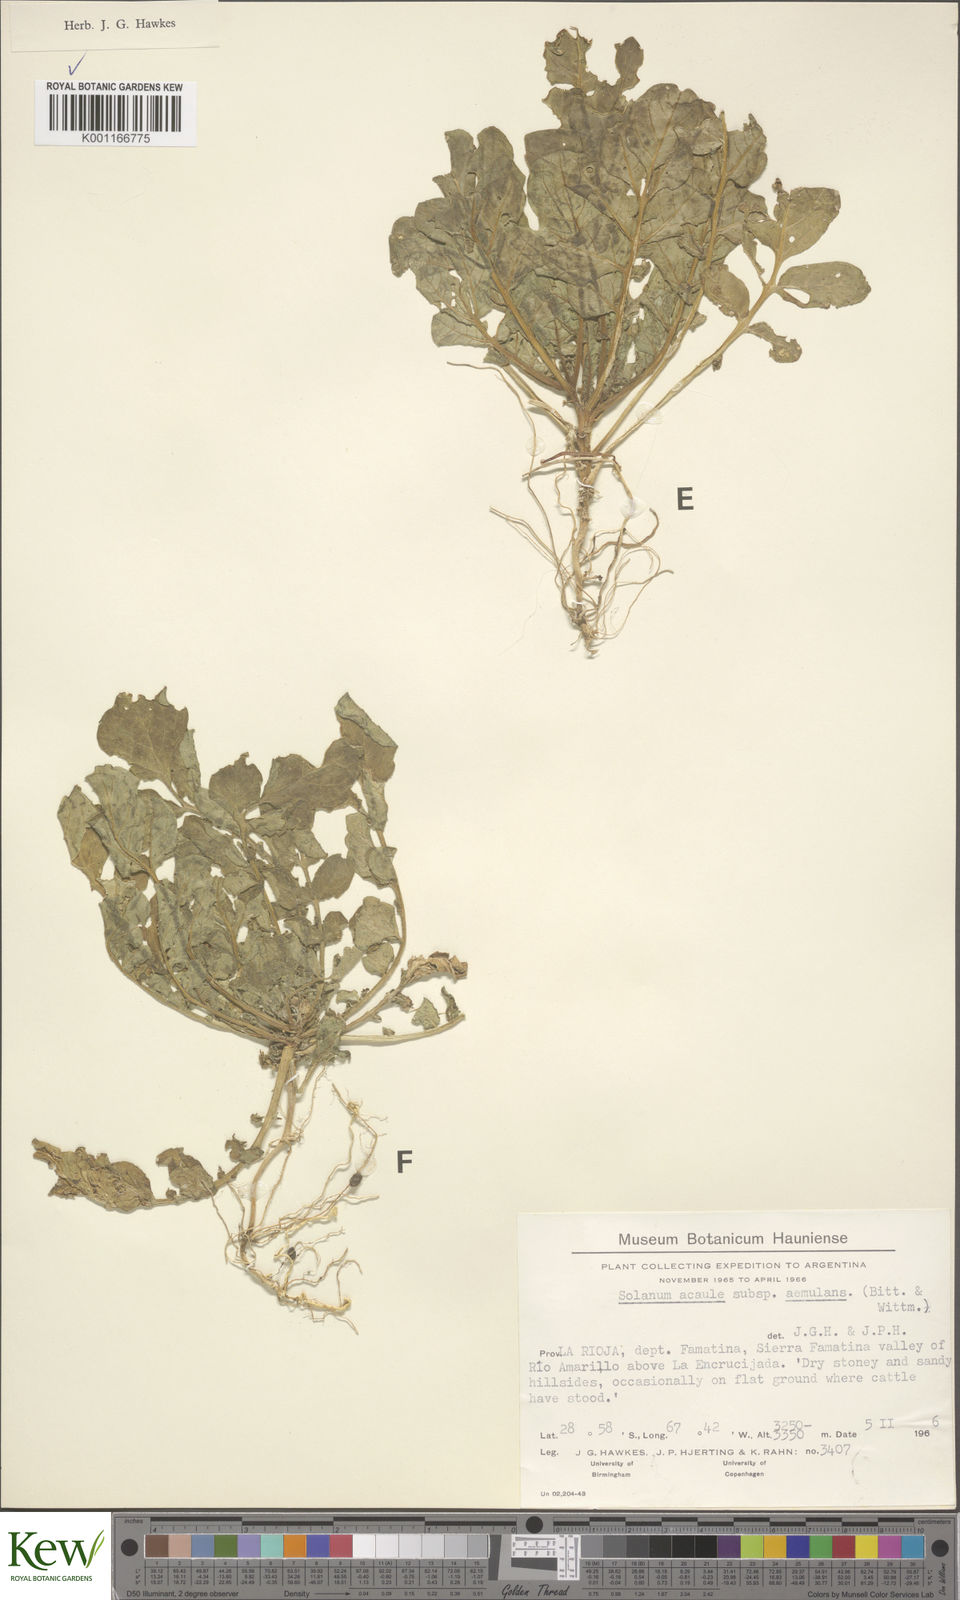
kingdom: Plantae
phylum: Tracheophyta
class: Magnoliopsida
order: Solanales
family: Solanaceae
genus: Solanum
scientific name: Solanum aemulans
